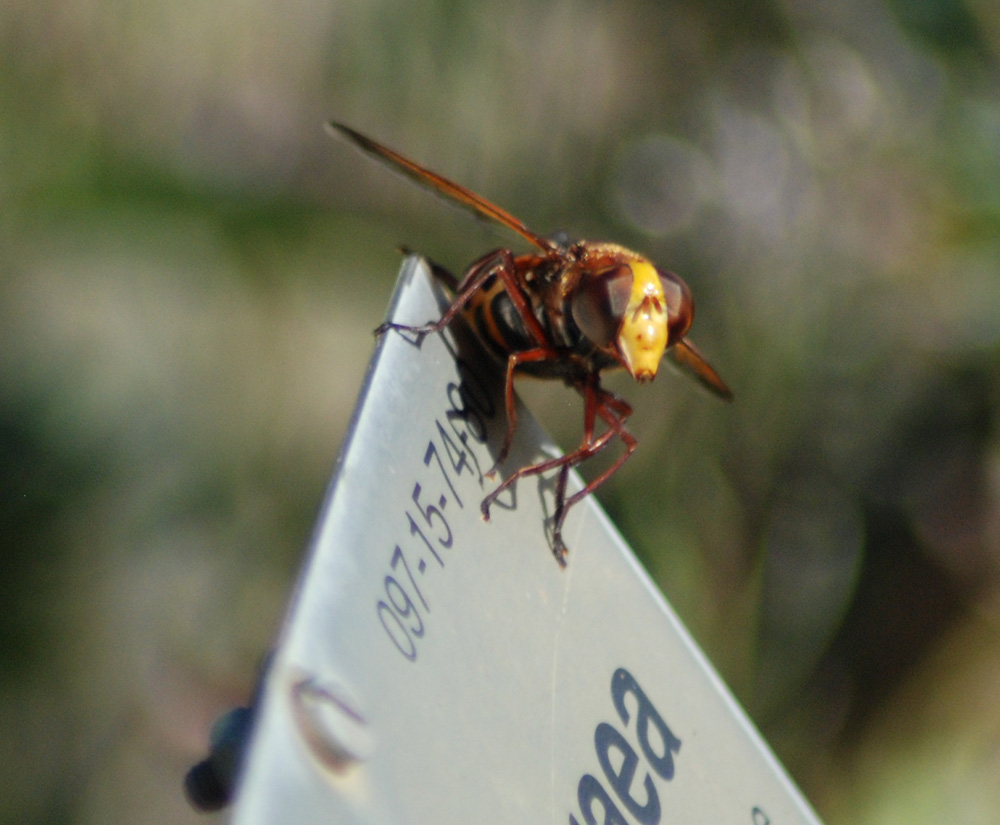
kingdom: Animalia
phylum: Arthropoda
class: Insecta
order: Diptera
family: Syrphidae
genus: Volucella
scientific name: Volucella zonaria
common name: Hornet hoverfly
